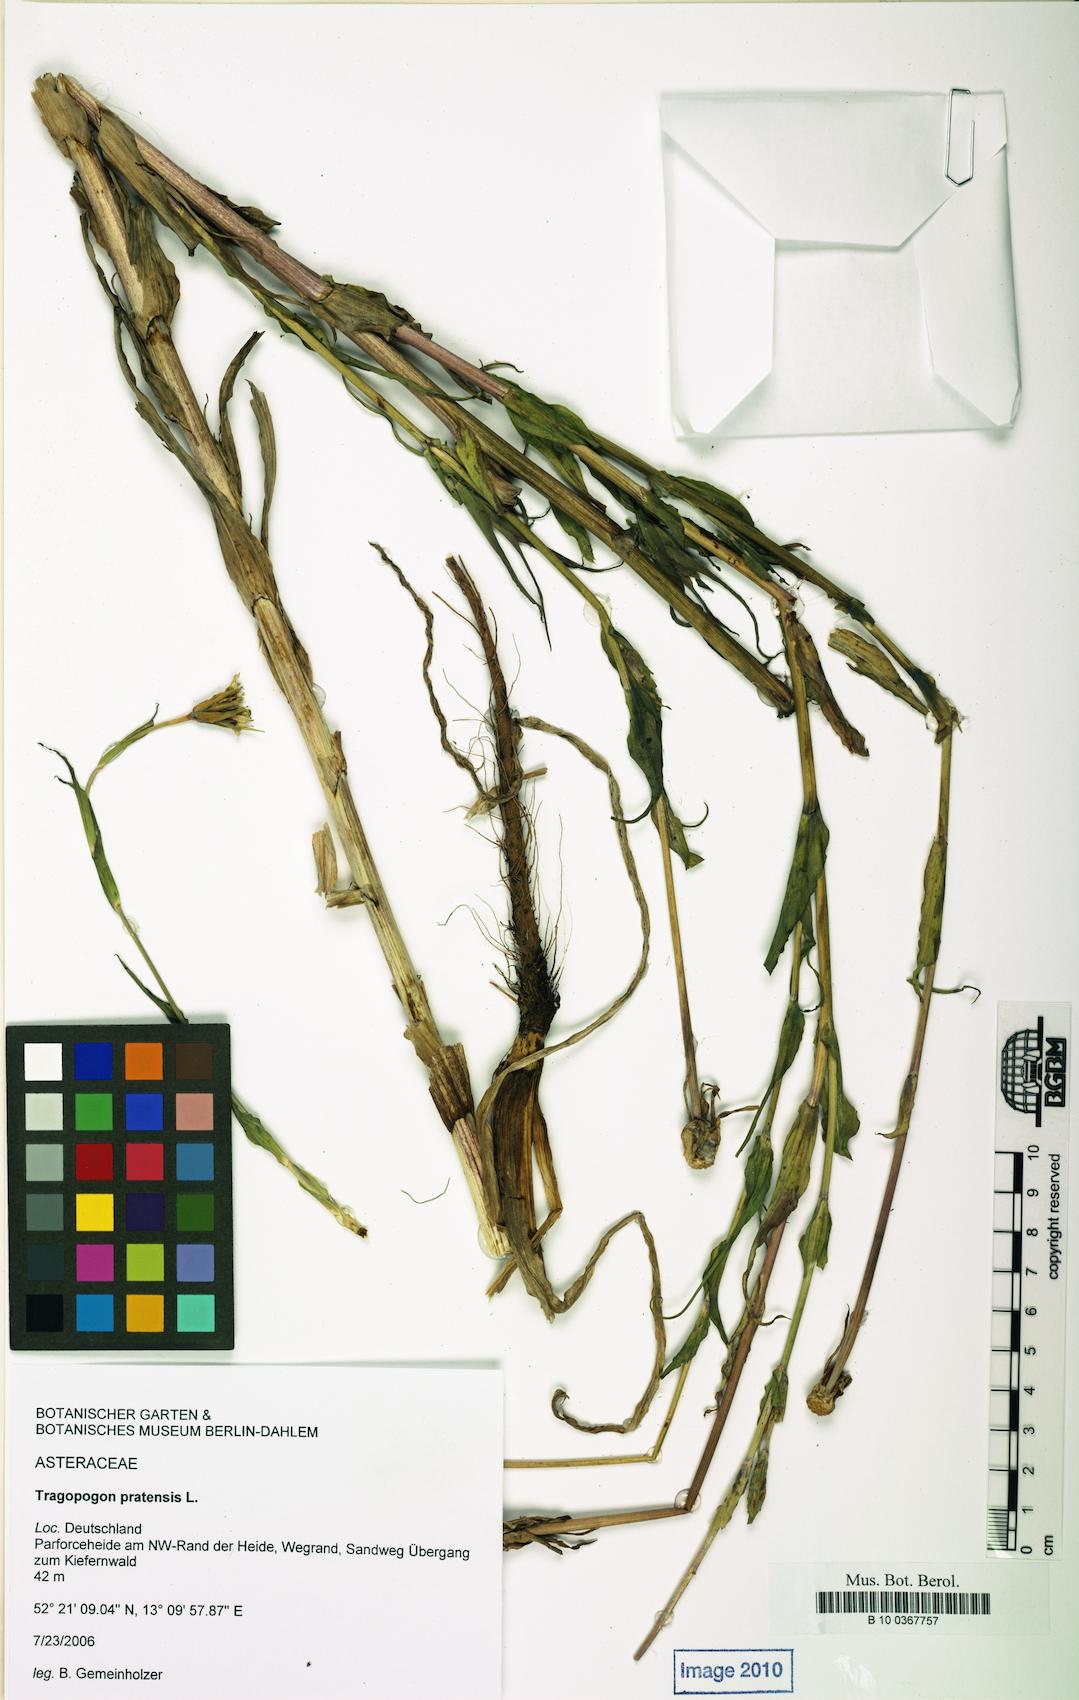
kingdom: Plantae
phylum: Tracheophyta
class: Magnoliopsida
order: Asterales
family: Asteraceae
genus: Tragopogon
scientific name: Tragopogon pratensis
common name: Goat's-beard
